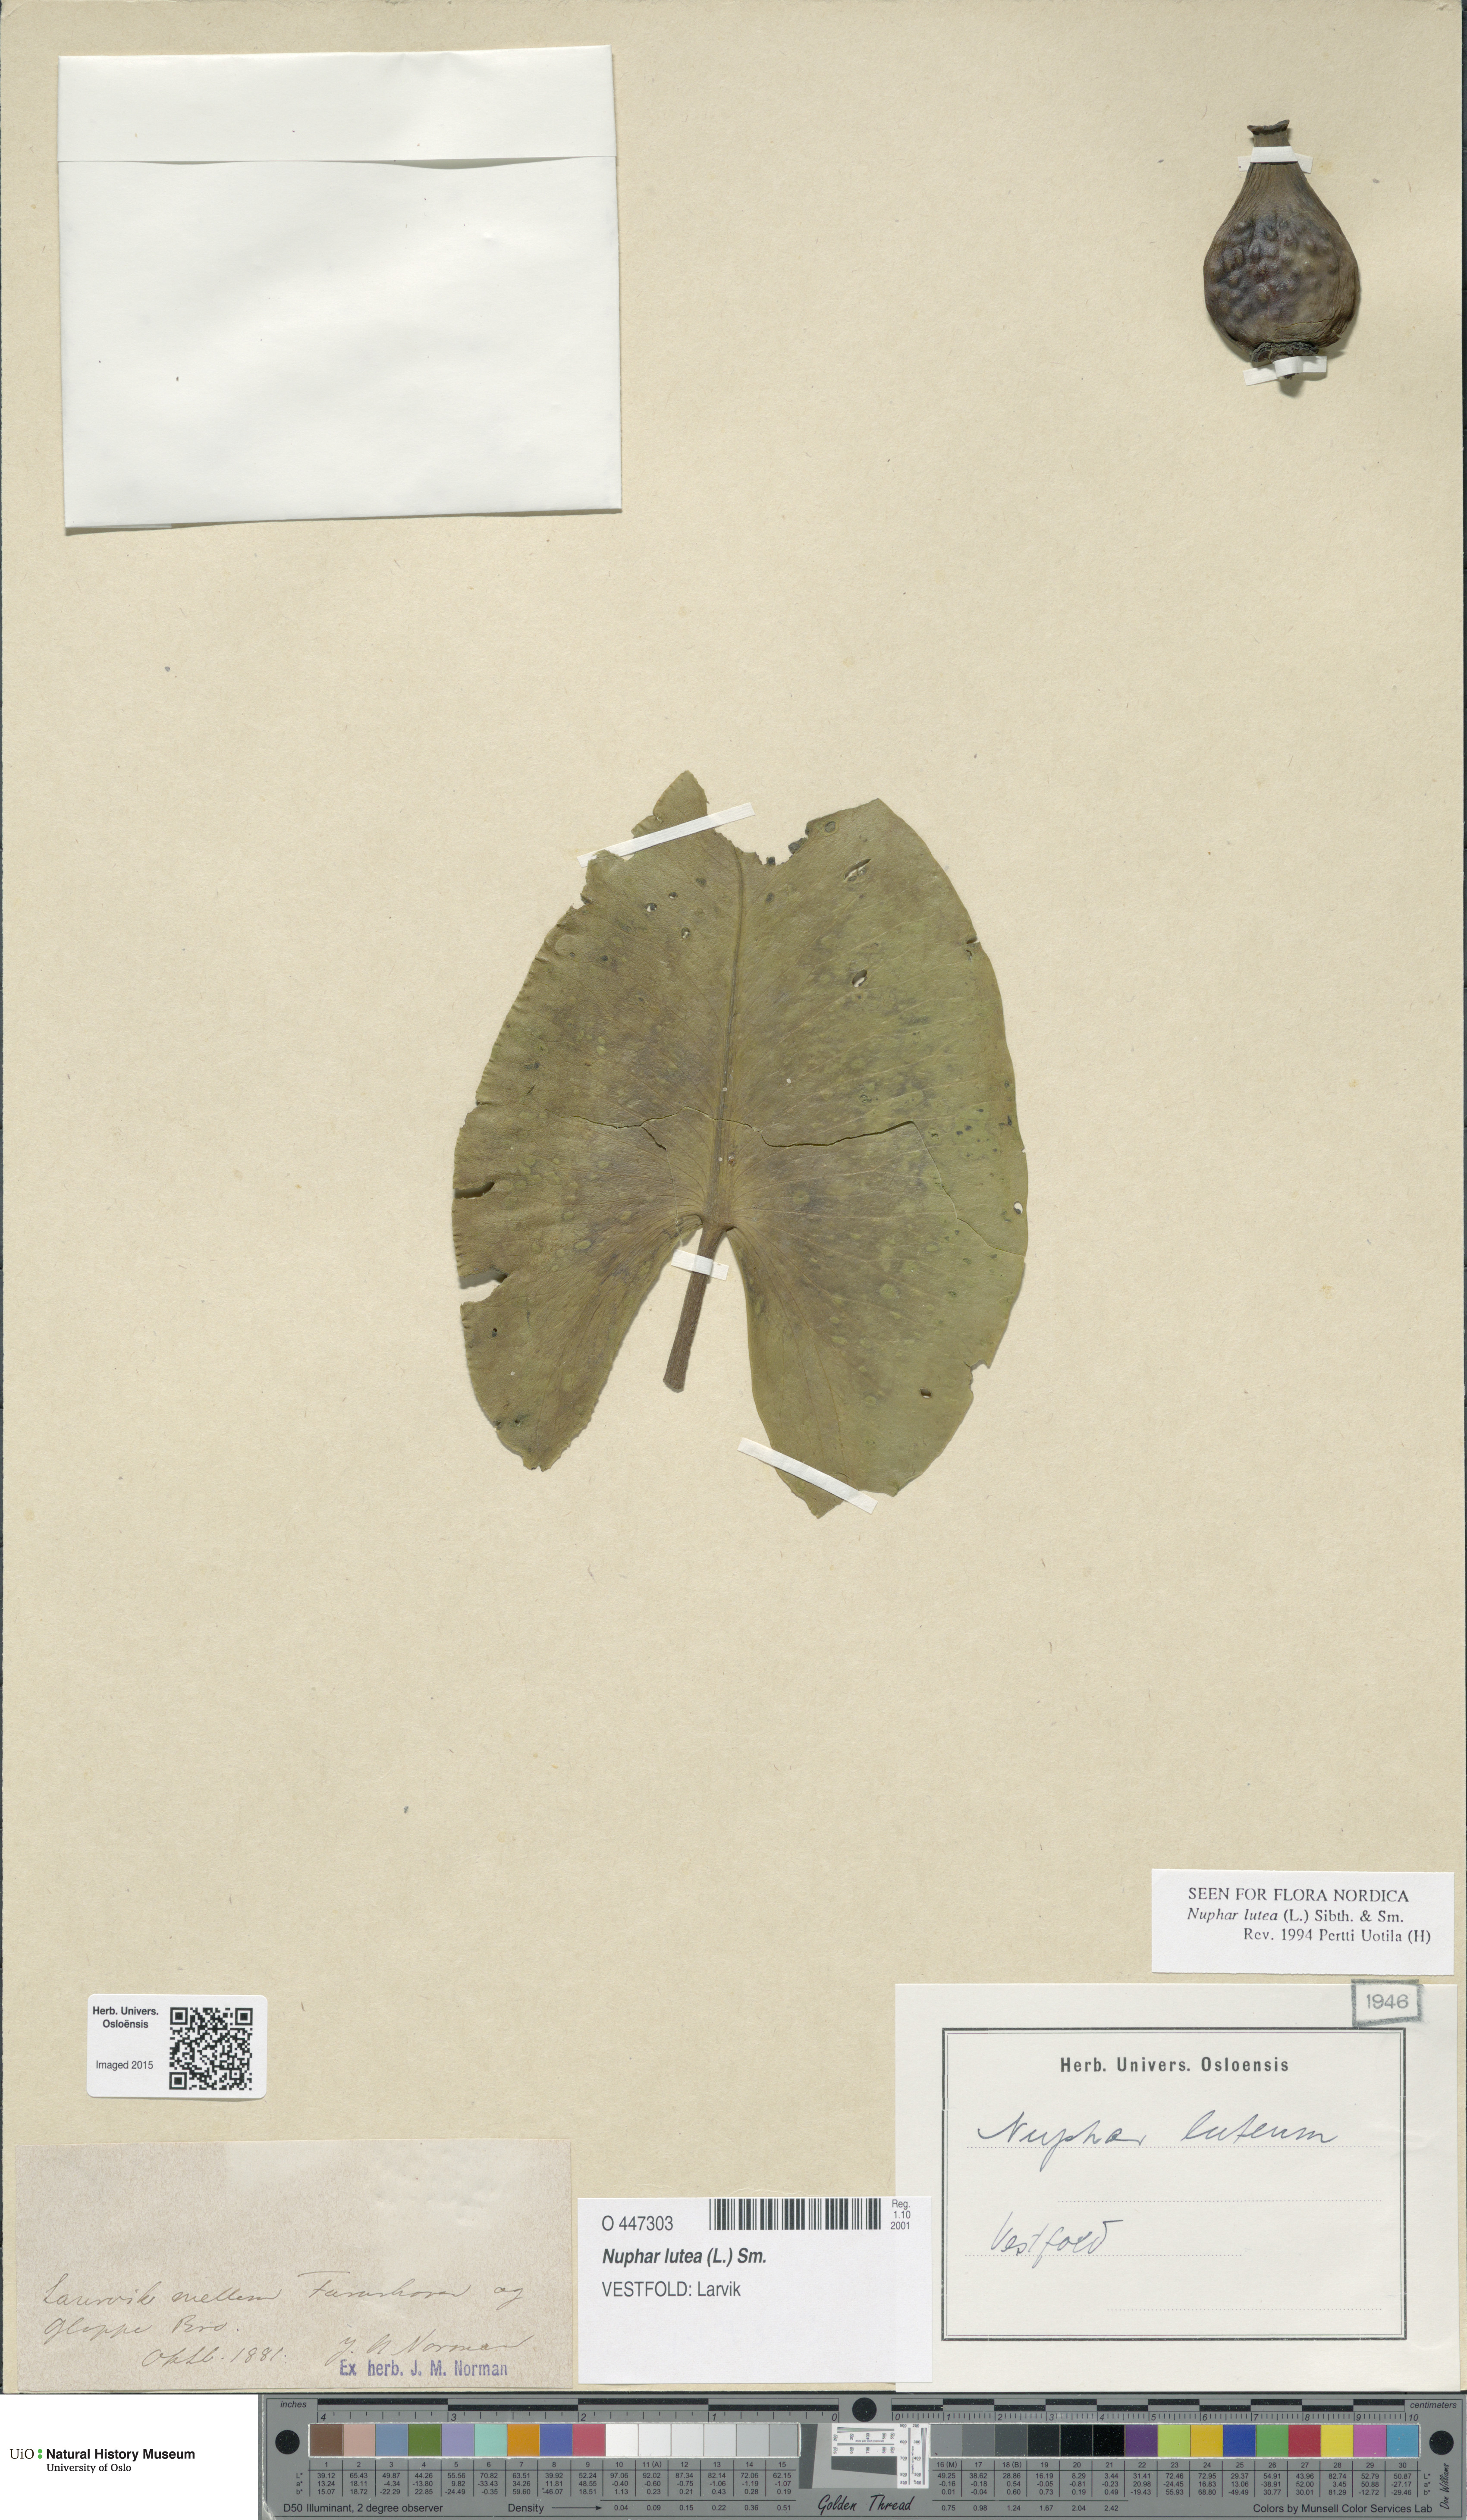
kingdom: Plantae
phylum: Tracheophyta
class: Magnoliopsida
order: Nymphaeales
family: Nymphaeaceae
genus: Nuphar
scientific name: Nuphar lutea
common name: Yellow water-lily
